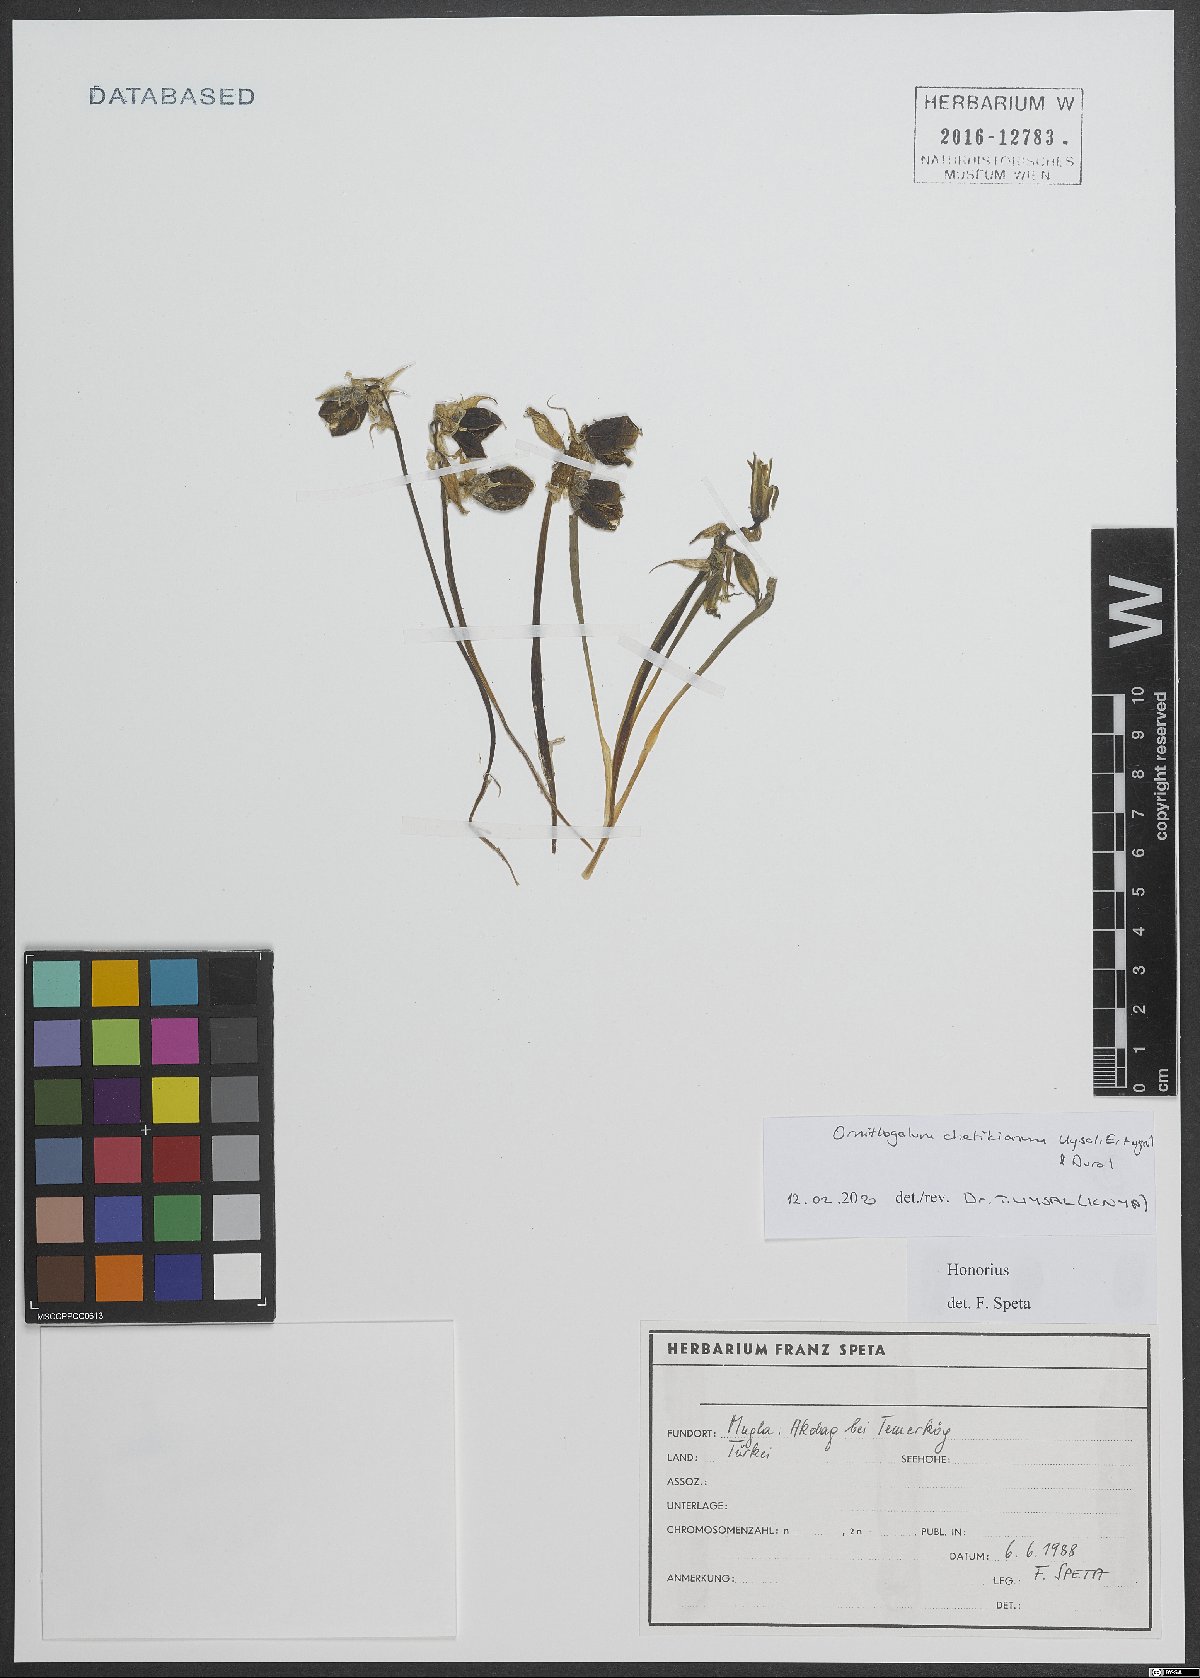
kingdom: Plantae
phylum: Tracheophyta
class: Liliopsida
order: Asparagales
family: Asparagaceae
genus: Ornithogalum
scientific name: Ornithogalum chetikianum
